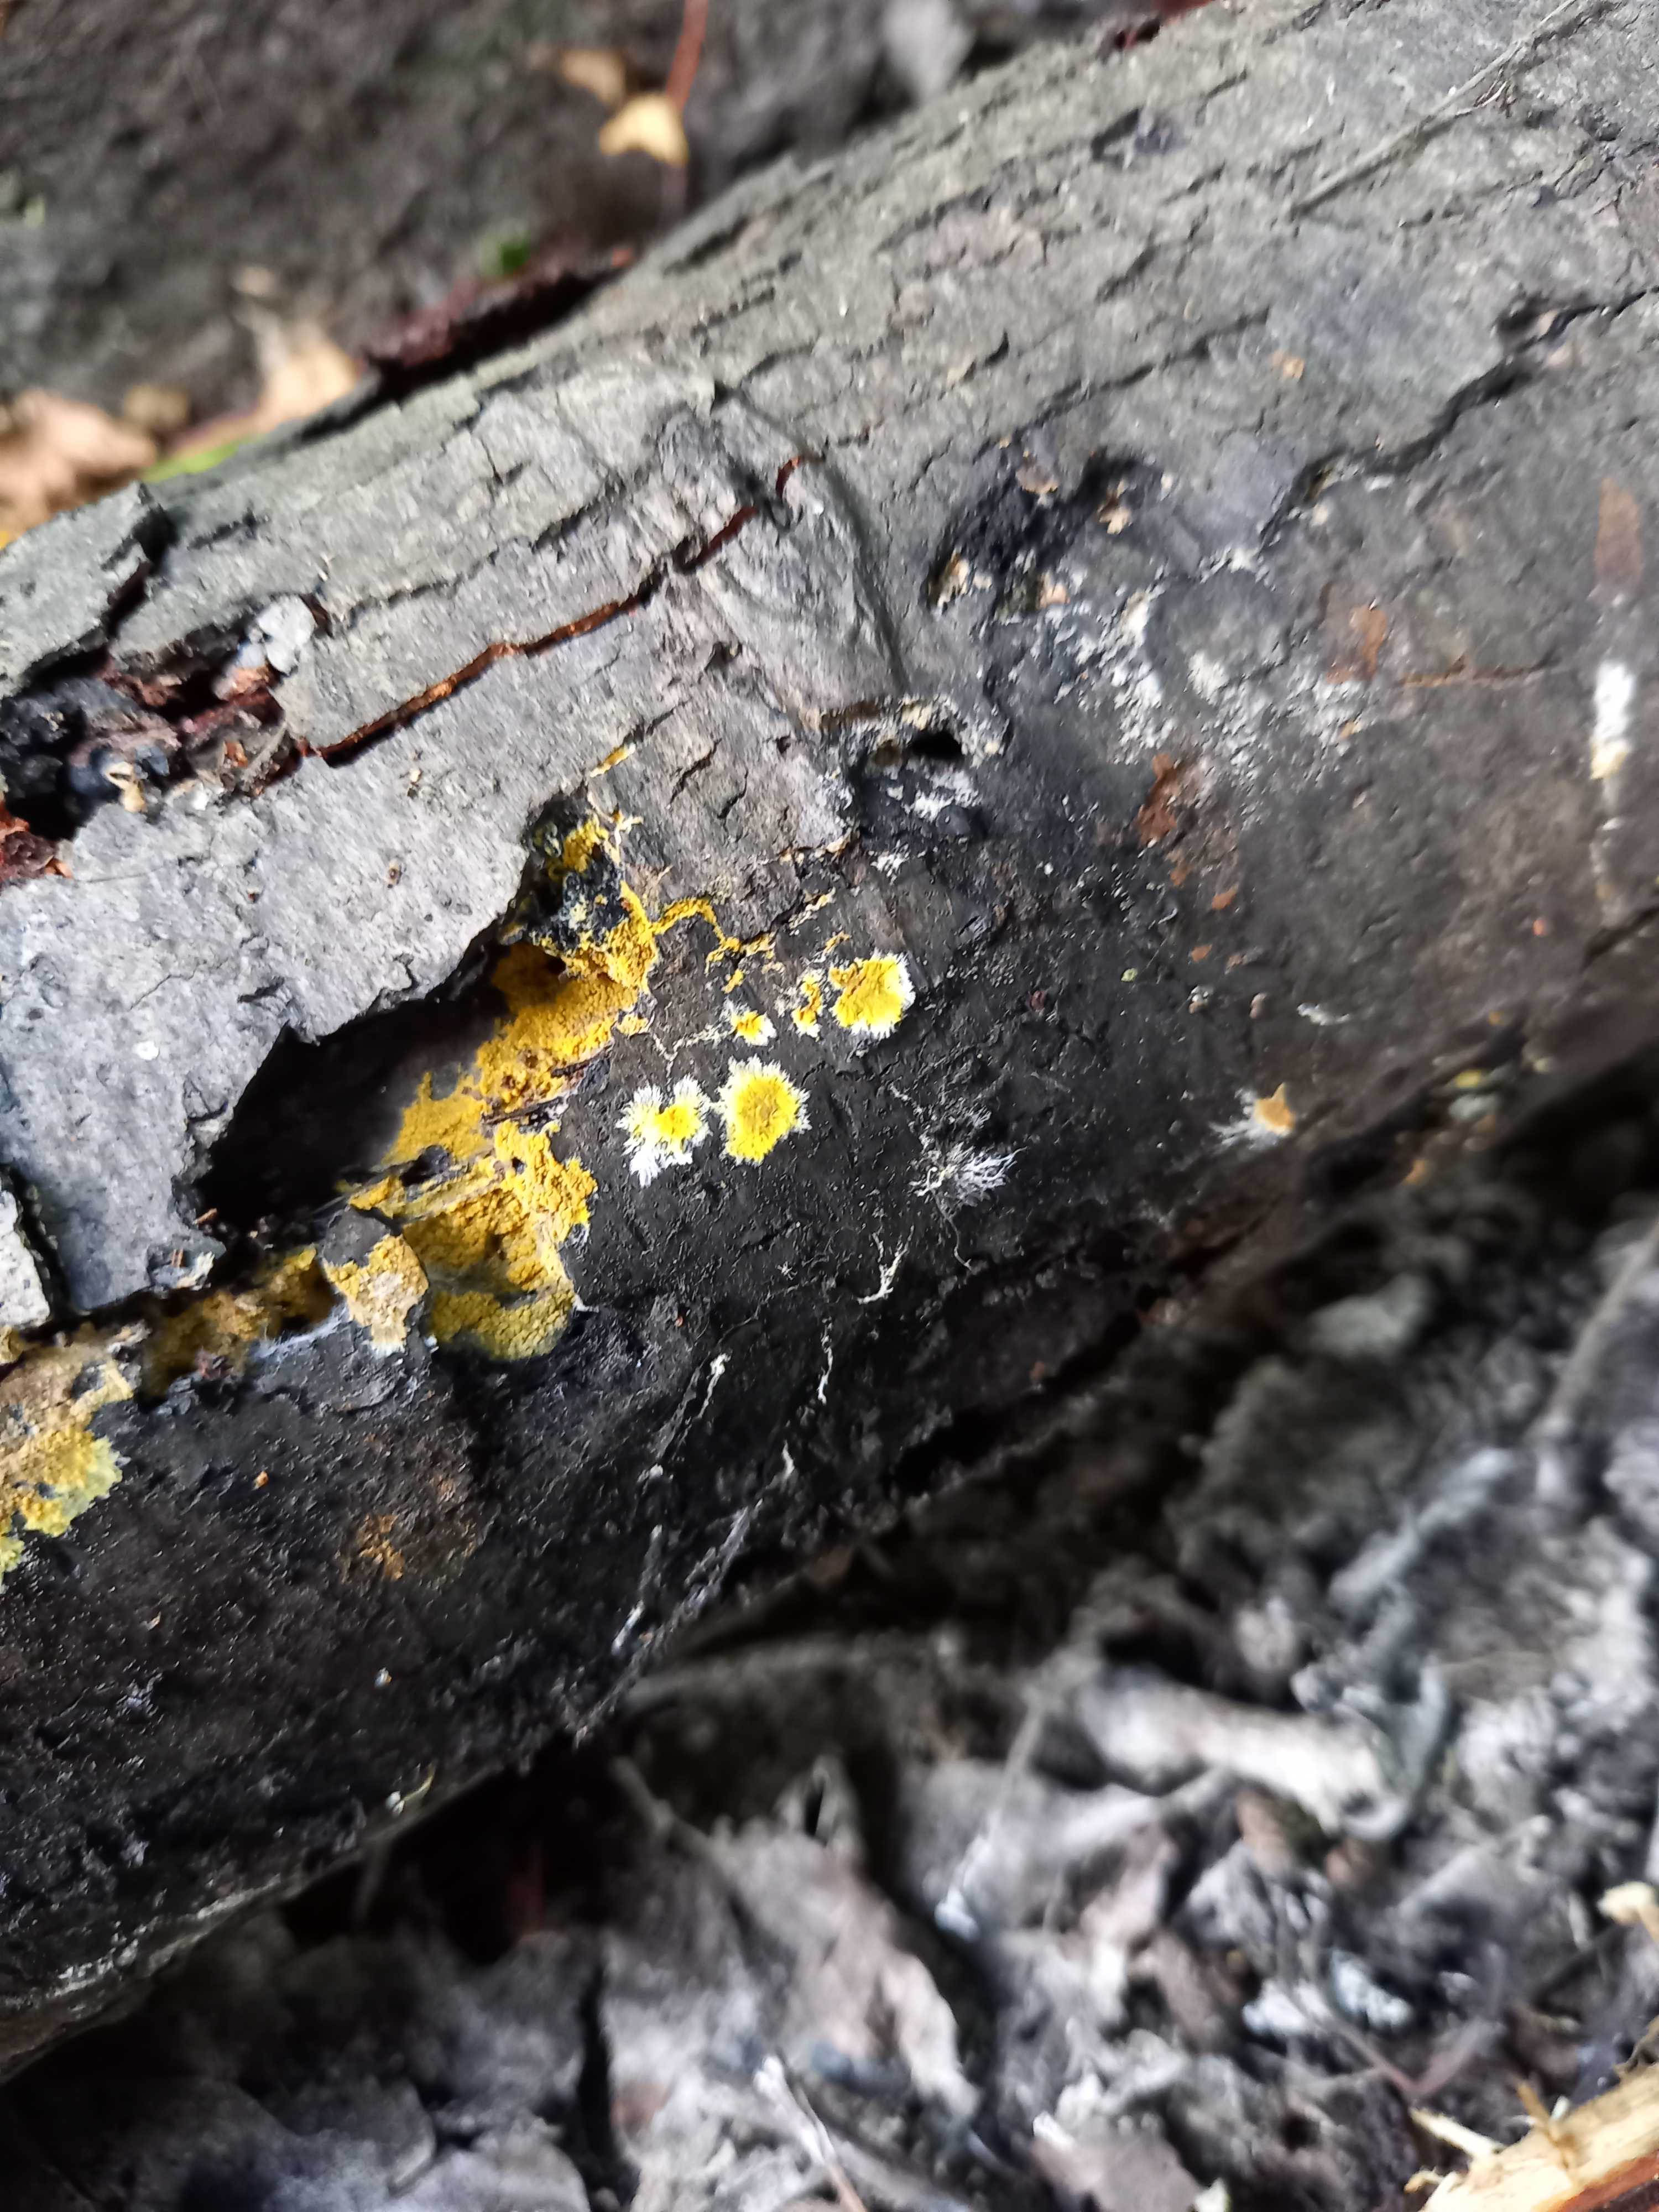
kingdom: Fungi
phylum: Basidiomycota
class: Agaricomycetes
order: Polyporales
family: Meruliaceae
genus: Phlebiodontia
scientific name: Phlebiodontia subochracea
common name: svovl-åresvamp
